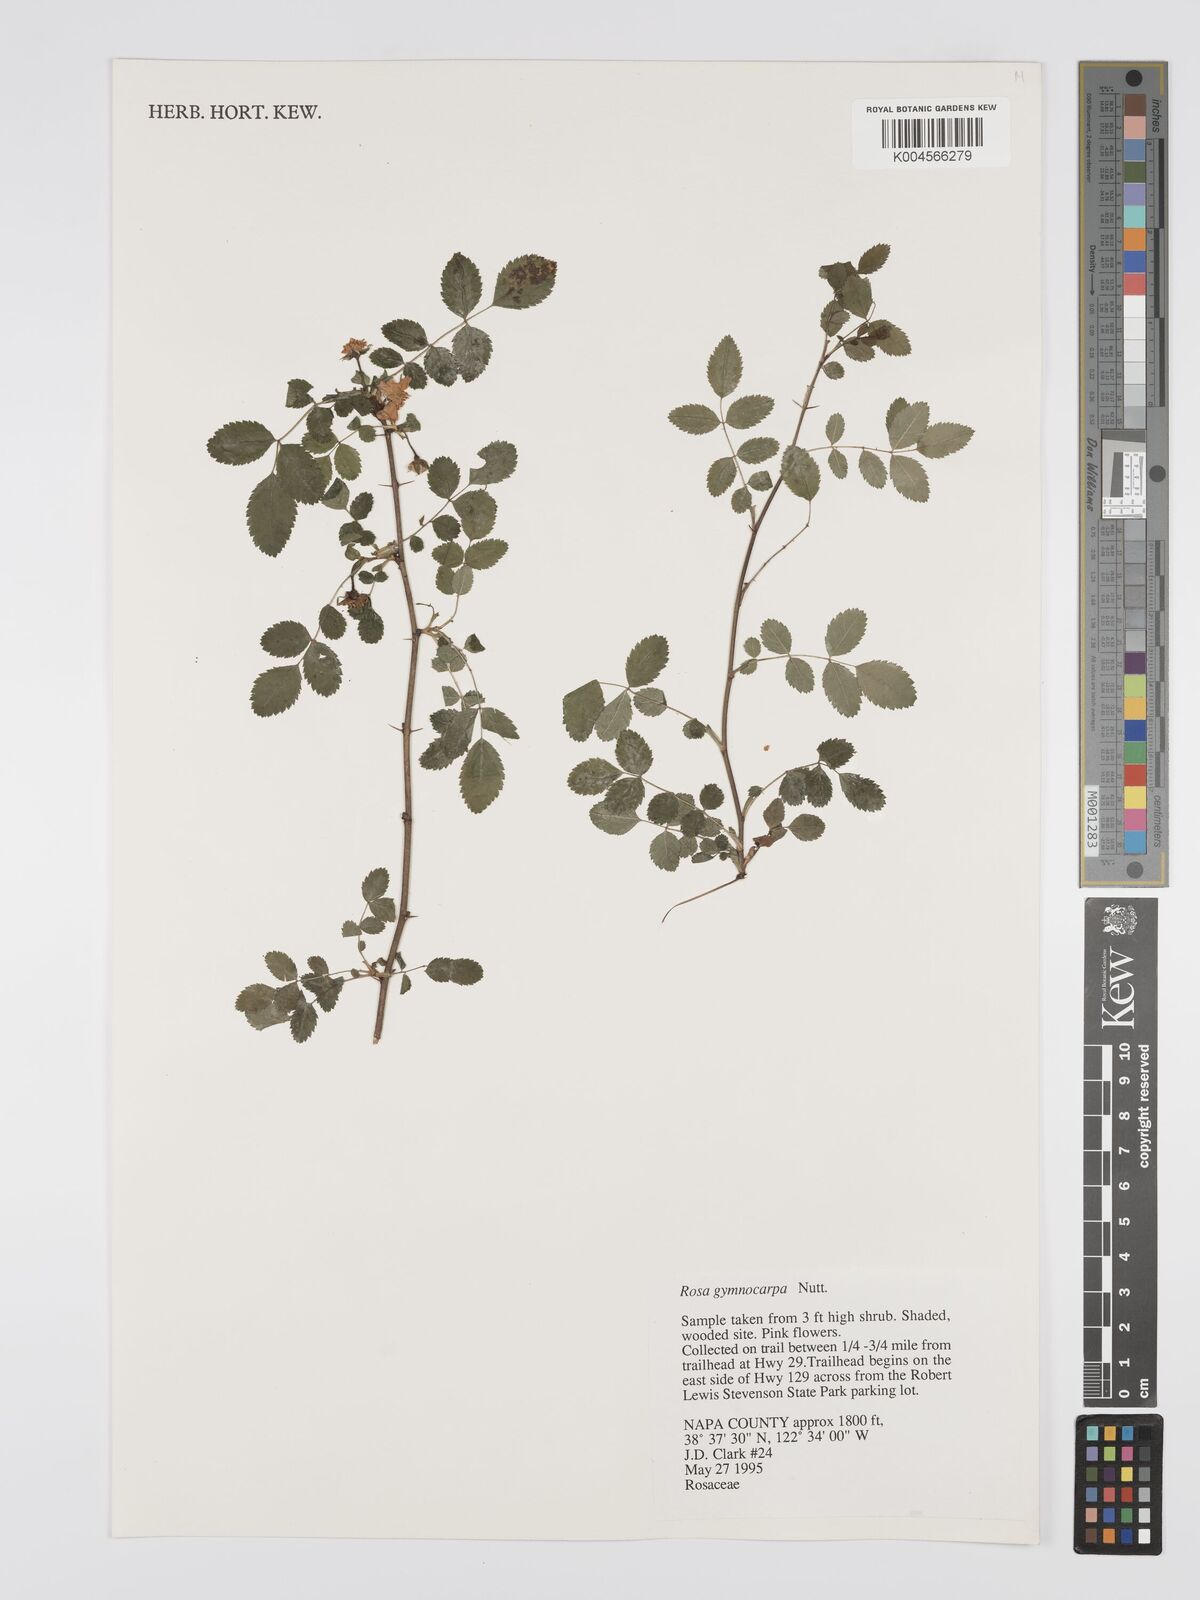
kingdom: Plantae
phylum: Tracheophyta
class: Magnoliopsida
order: Rosales
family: Rosaceae
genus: Rosa
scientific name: Rosa gymnocarpa
